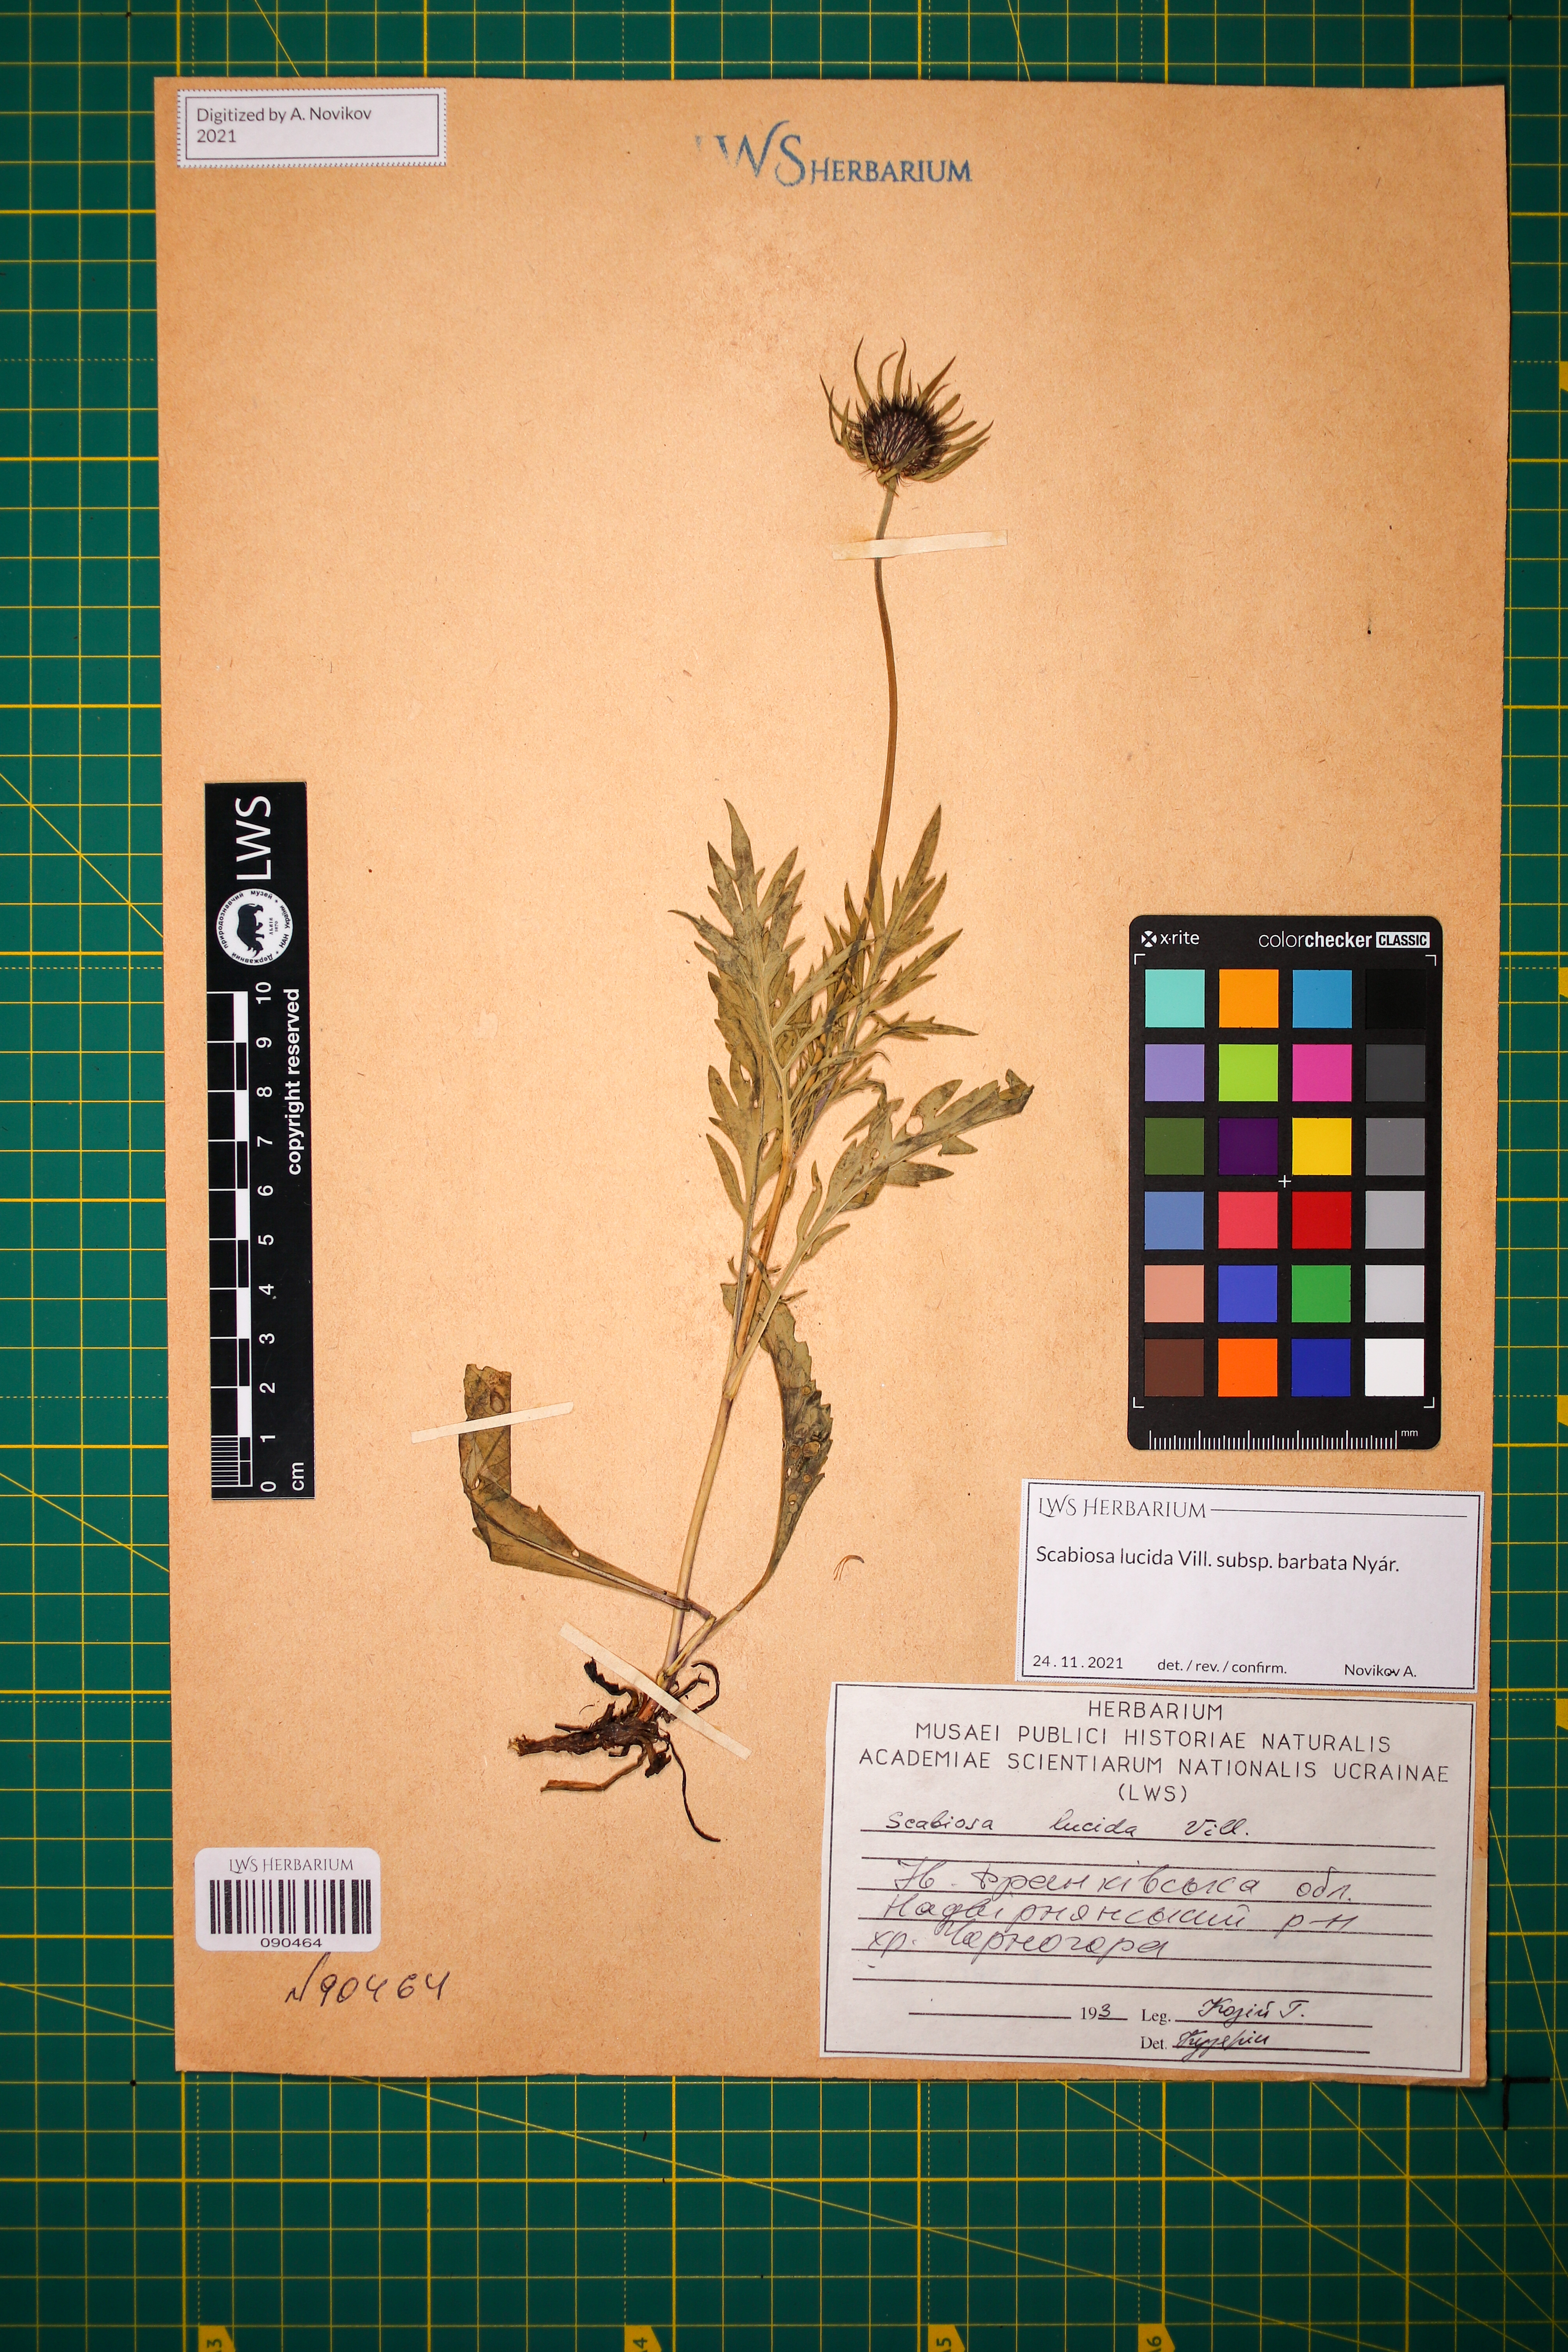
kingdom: Plantae
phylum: Tracheophyta
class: Magnoliopsida
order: Dipsacales
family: Caprifoliaceae
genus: Scabiosa
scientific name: Scabiosa lucida
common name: Shining scabious
